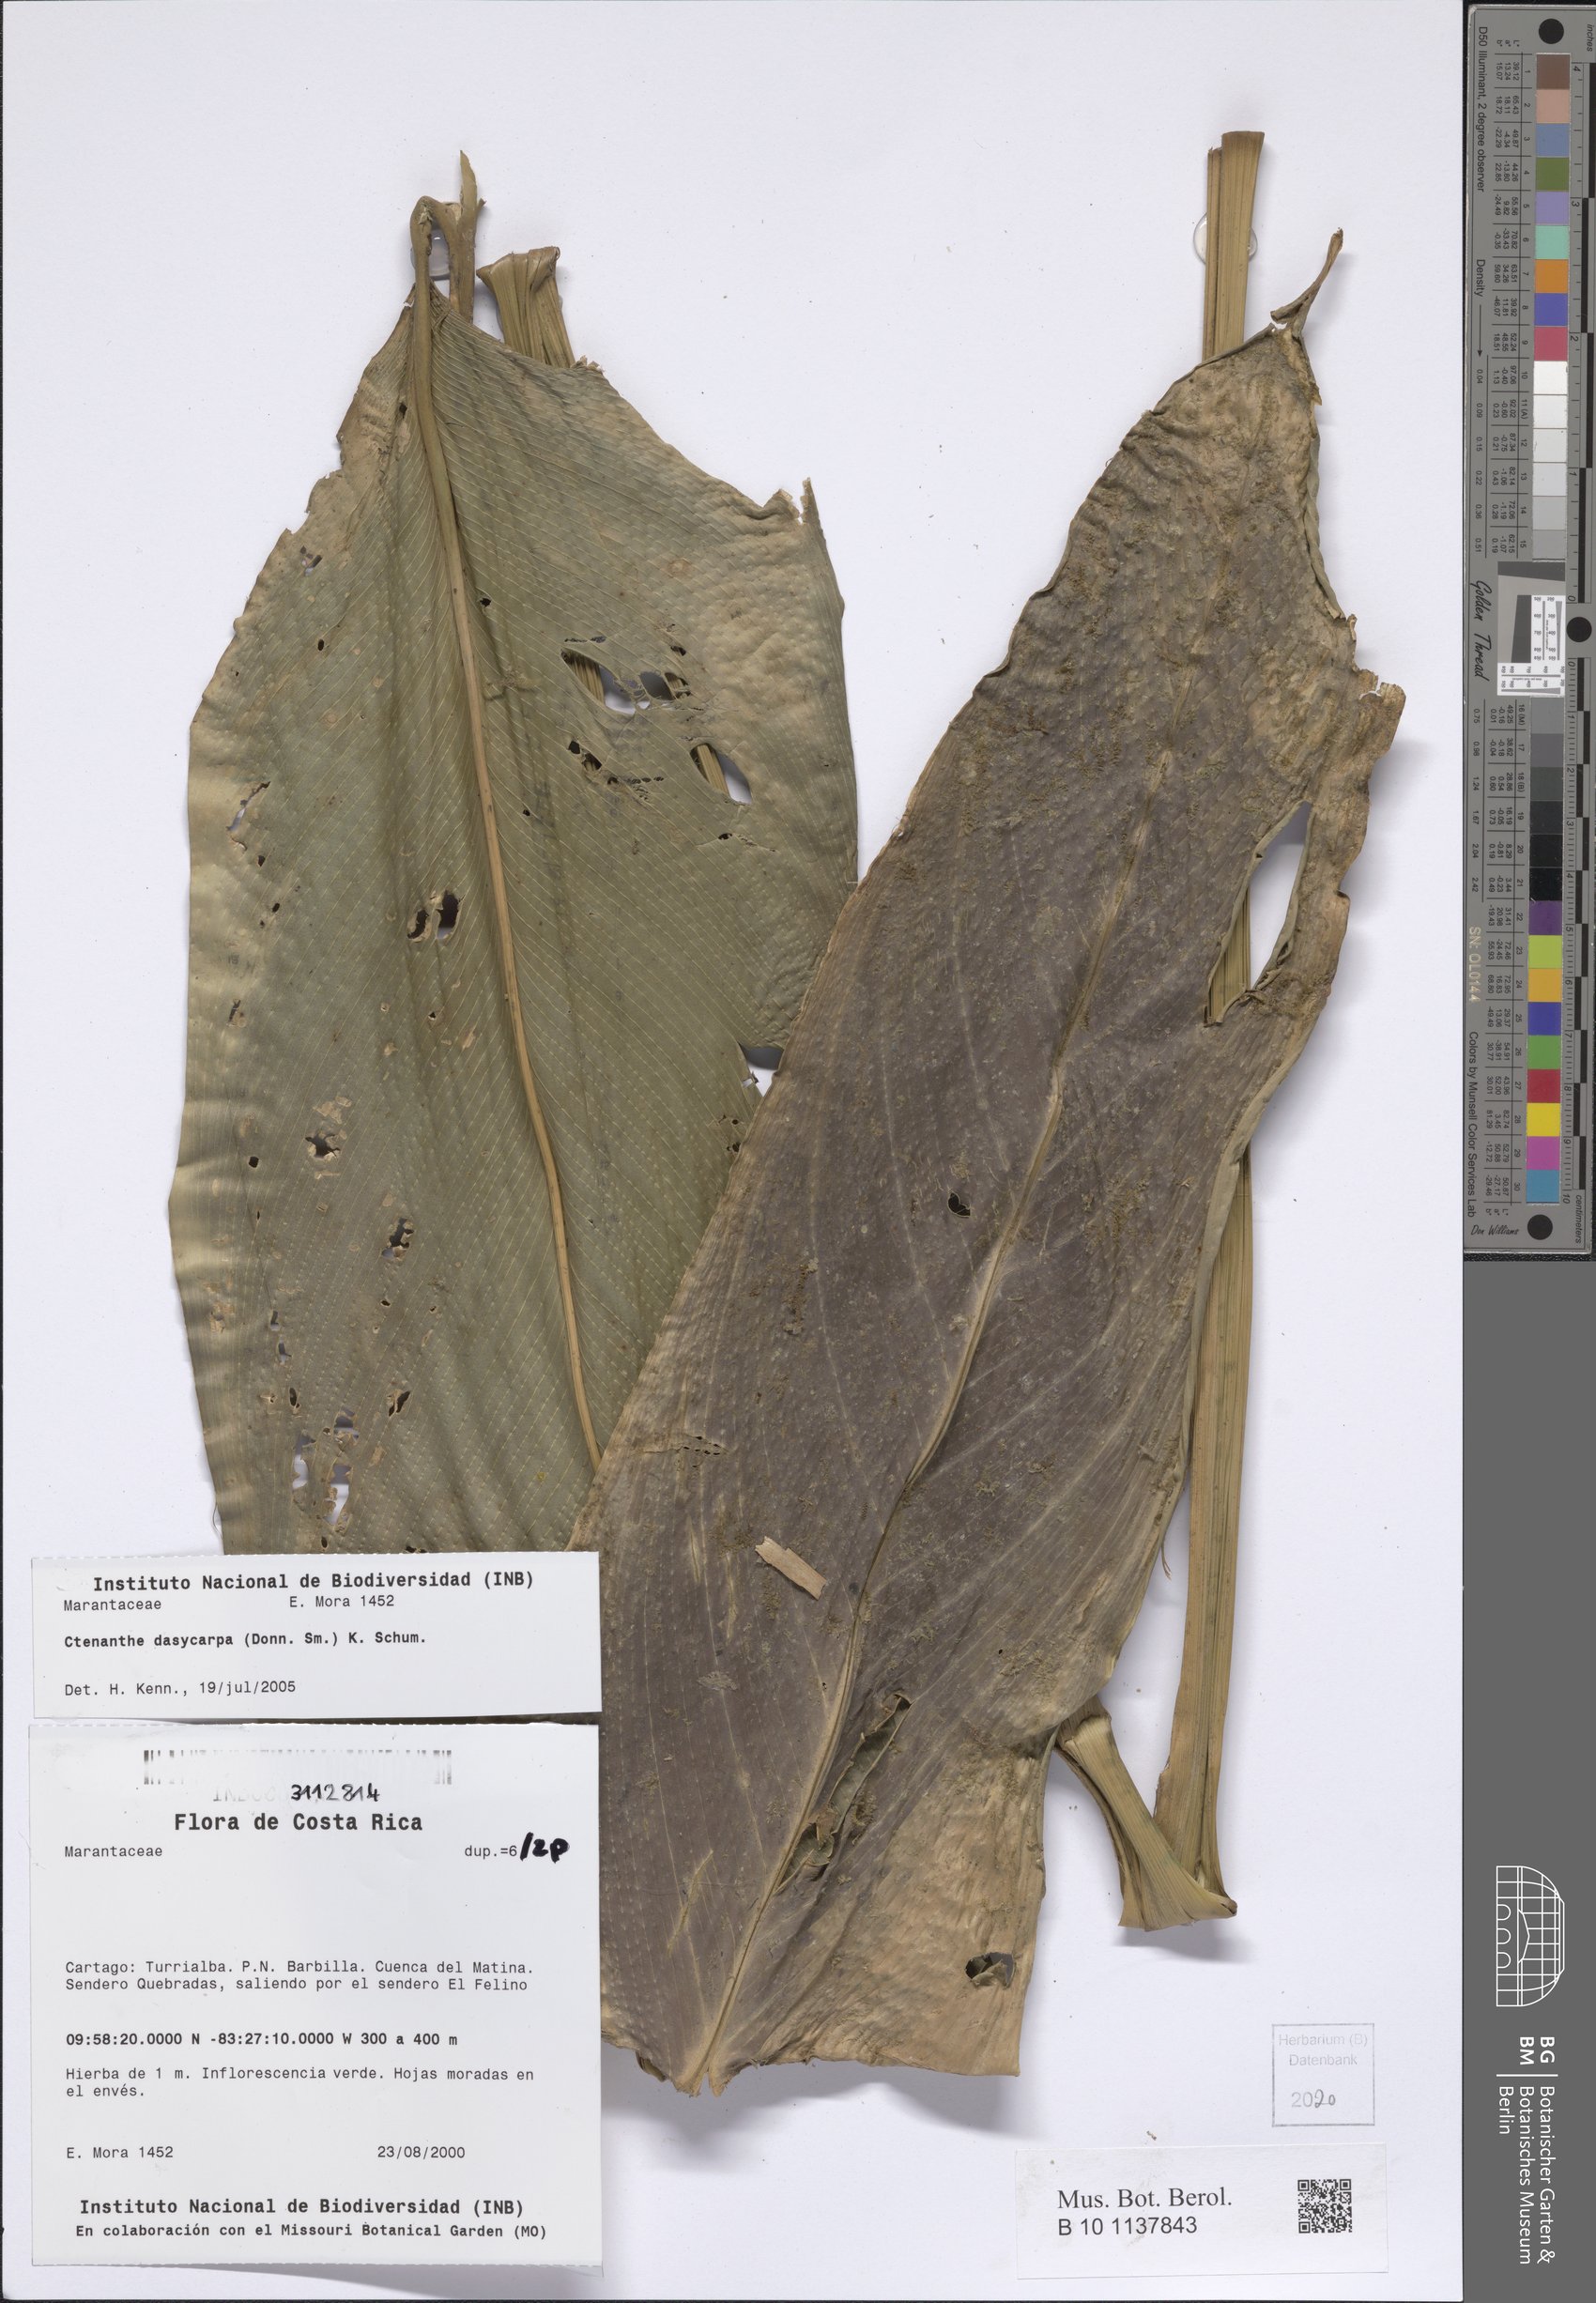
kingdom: Plantae
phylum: Tracheophyta
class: Liliopsida
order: Zingiberales
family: Marantaceae
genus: Ctenanthe
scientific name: Ctenanthe dasycarpa
